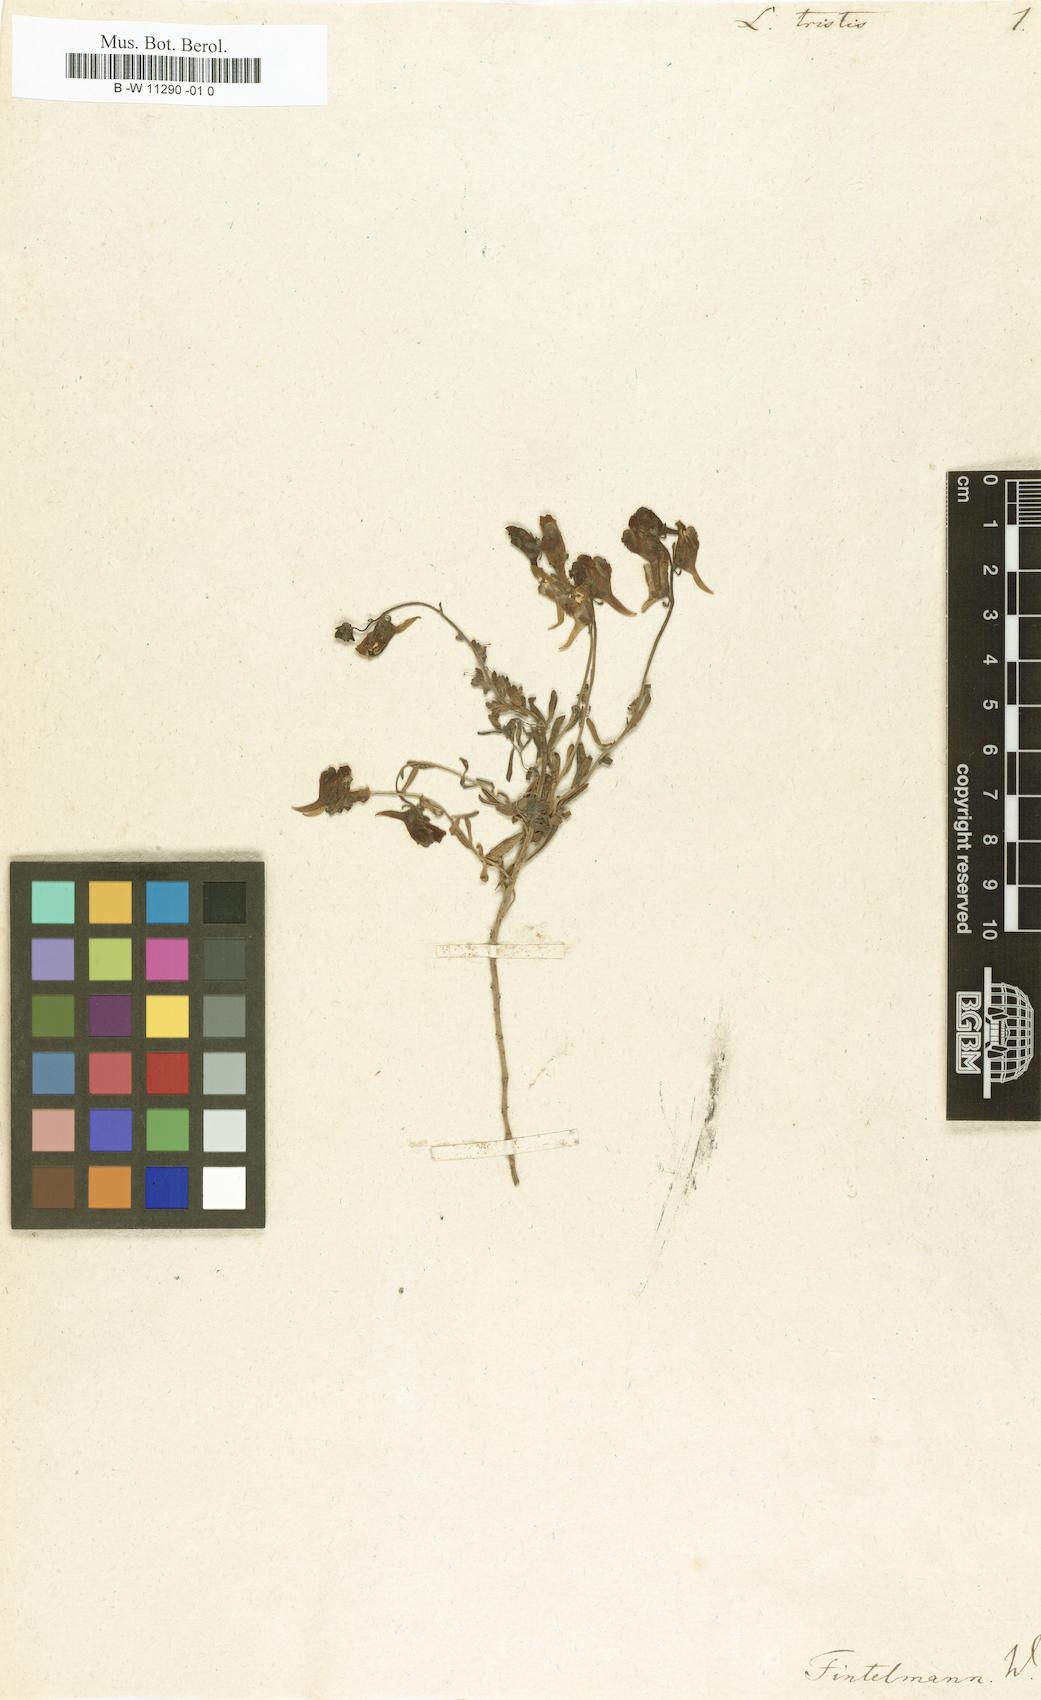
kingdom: Plantae
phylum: Tracheophyta
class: Magnoliopsida
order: Lamiales
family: Plantaginaceae
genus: Linaria
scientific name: Linaria tristis
